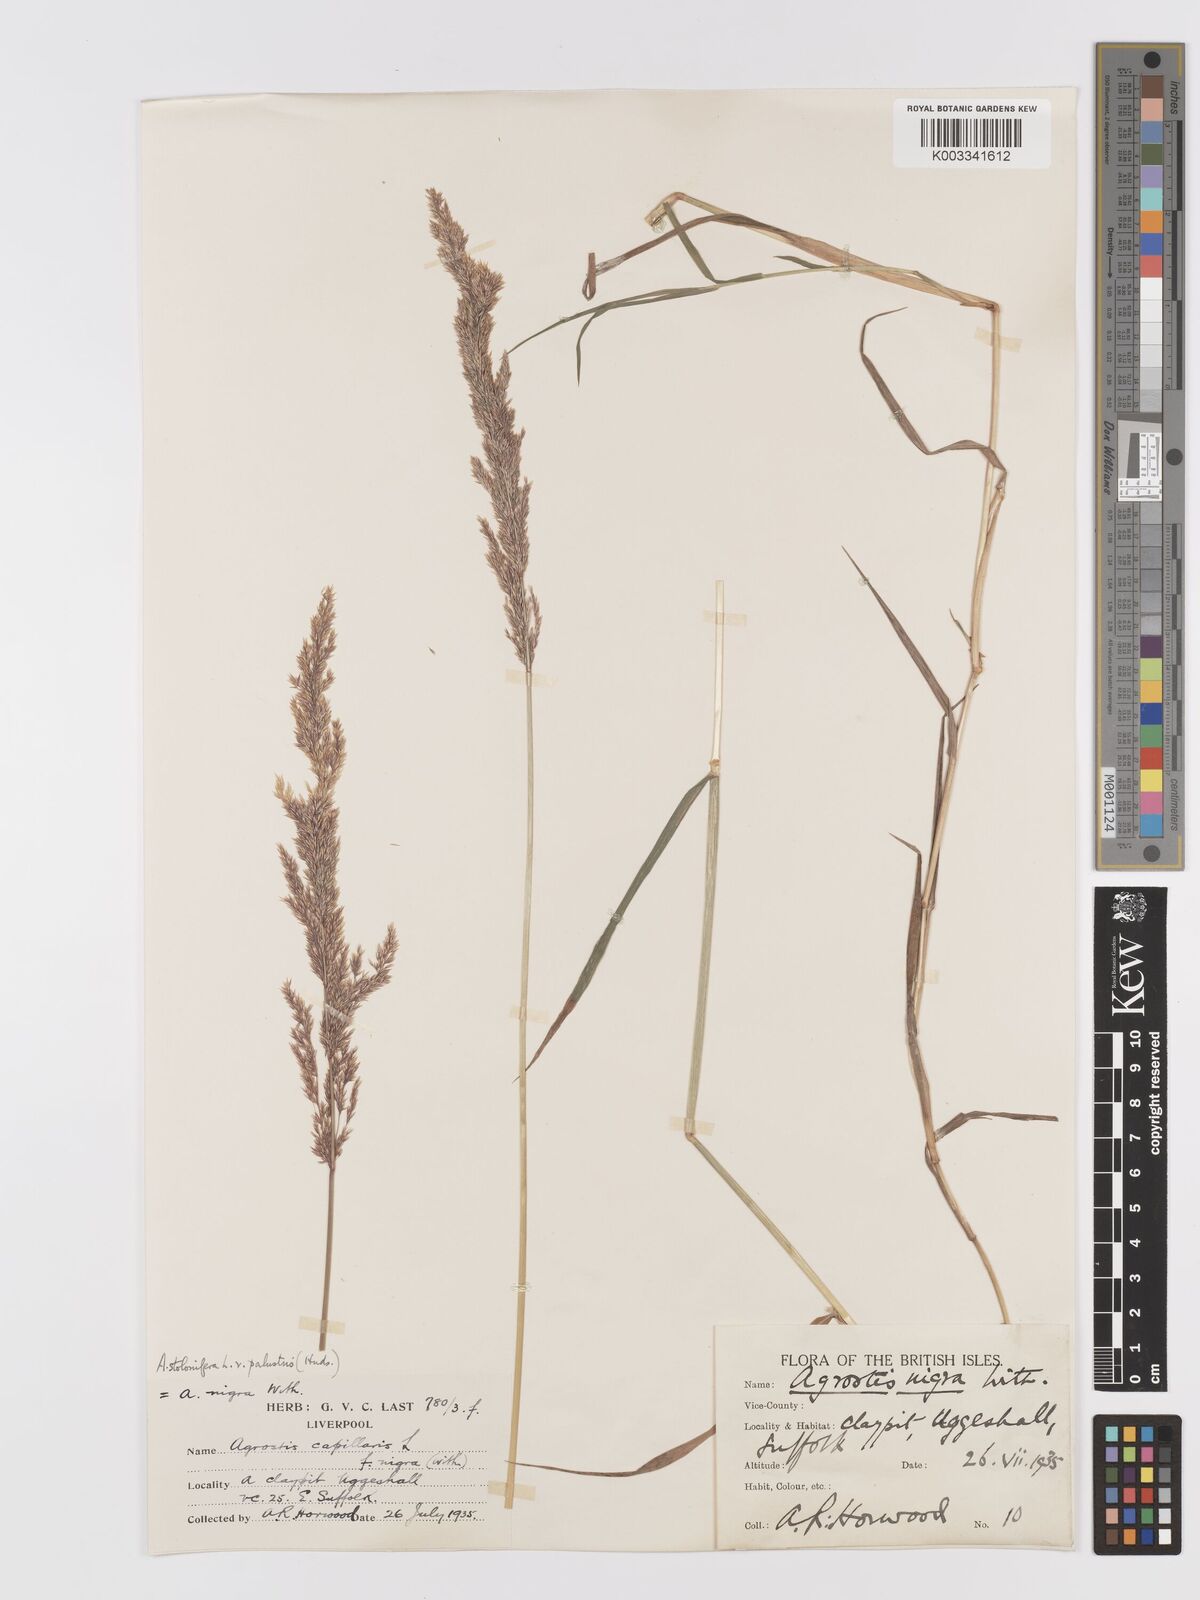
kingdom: Plantae
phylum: Tracheophyta
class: Liliopsida
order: Poales
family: Poaceae
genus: Agrostis
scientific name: Agrostis stolonifera
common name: Creeping bentgrass
